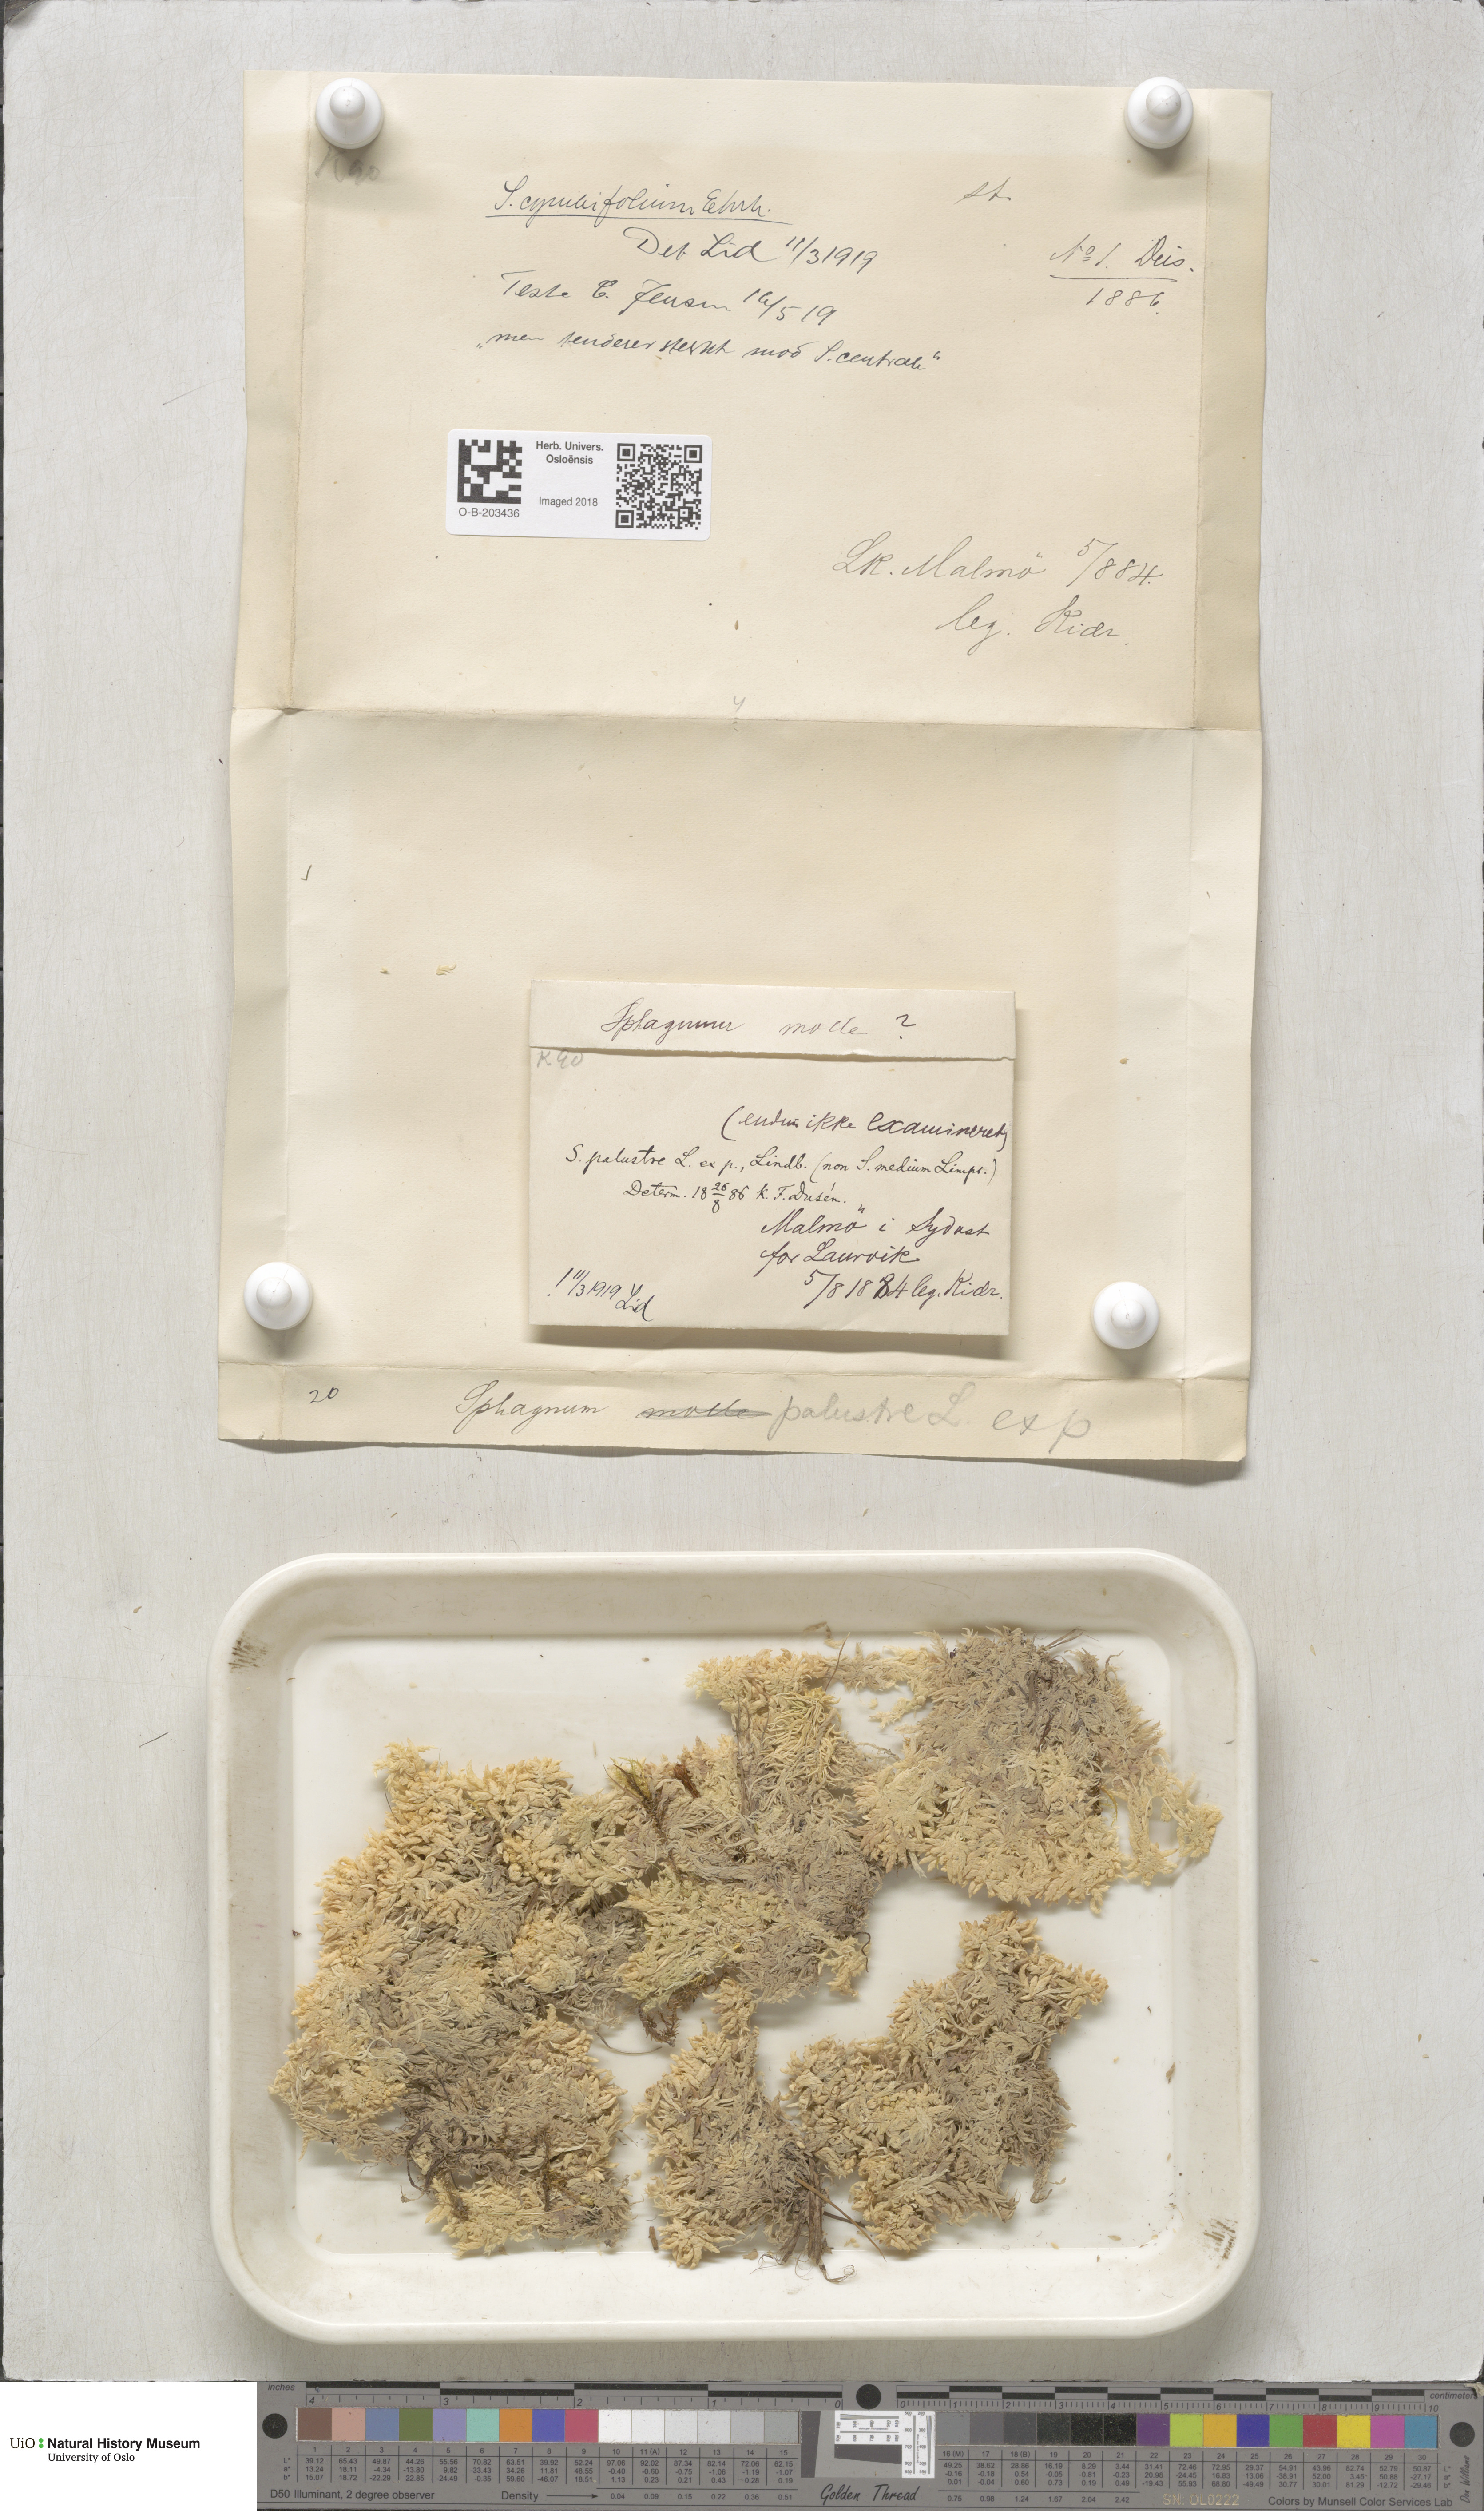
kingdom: Plantae
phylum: Bryophyta
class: Sphagnopsida
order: Sphagnales
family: Sphagnaceae
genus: Sphagnum
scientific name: Sphagnum palustre
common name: Blunt-leaved bog-moss
